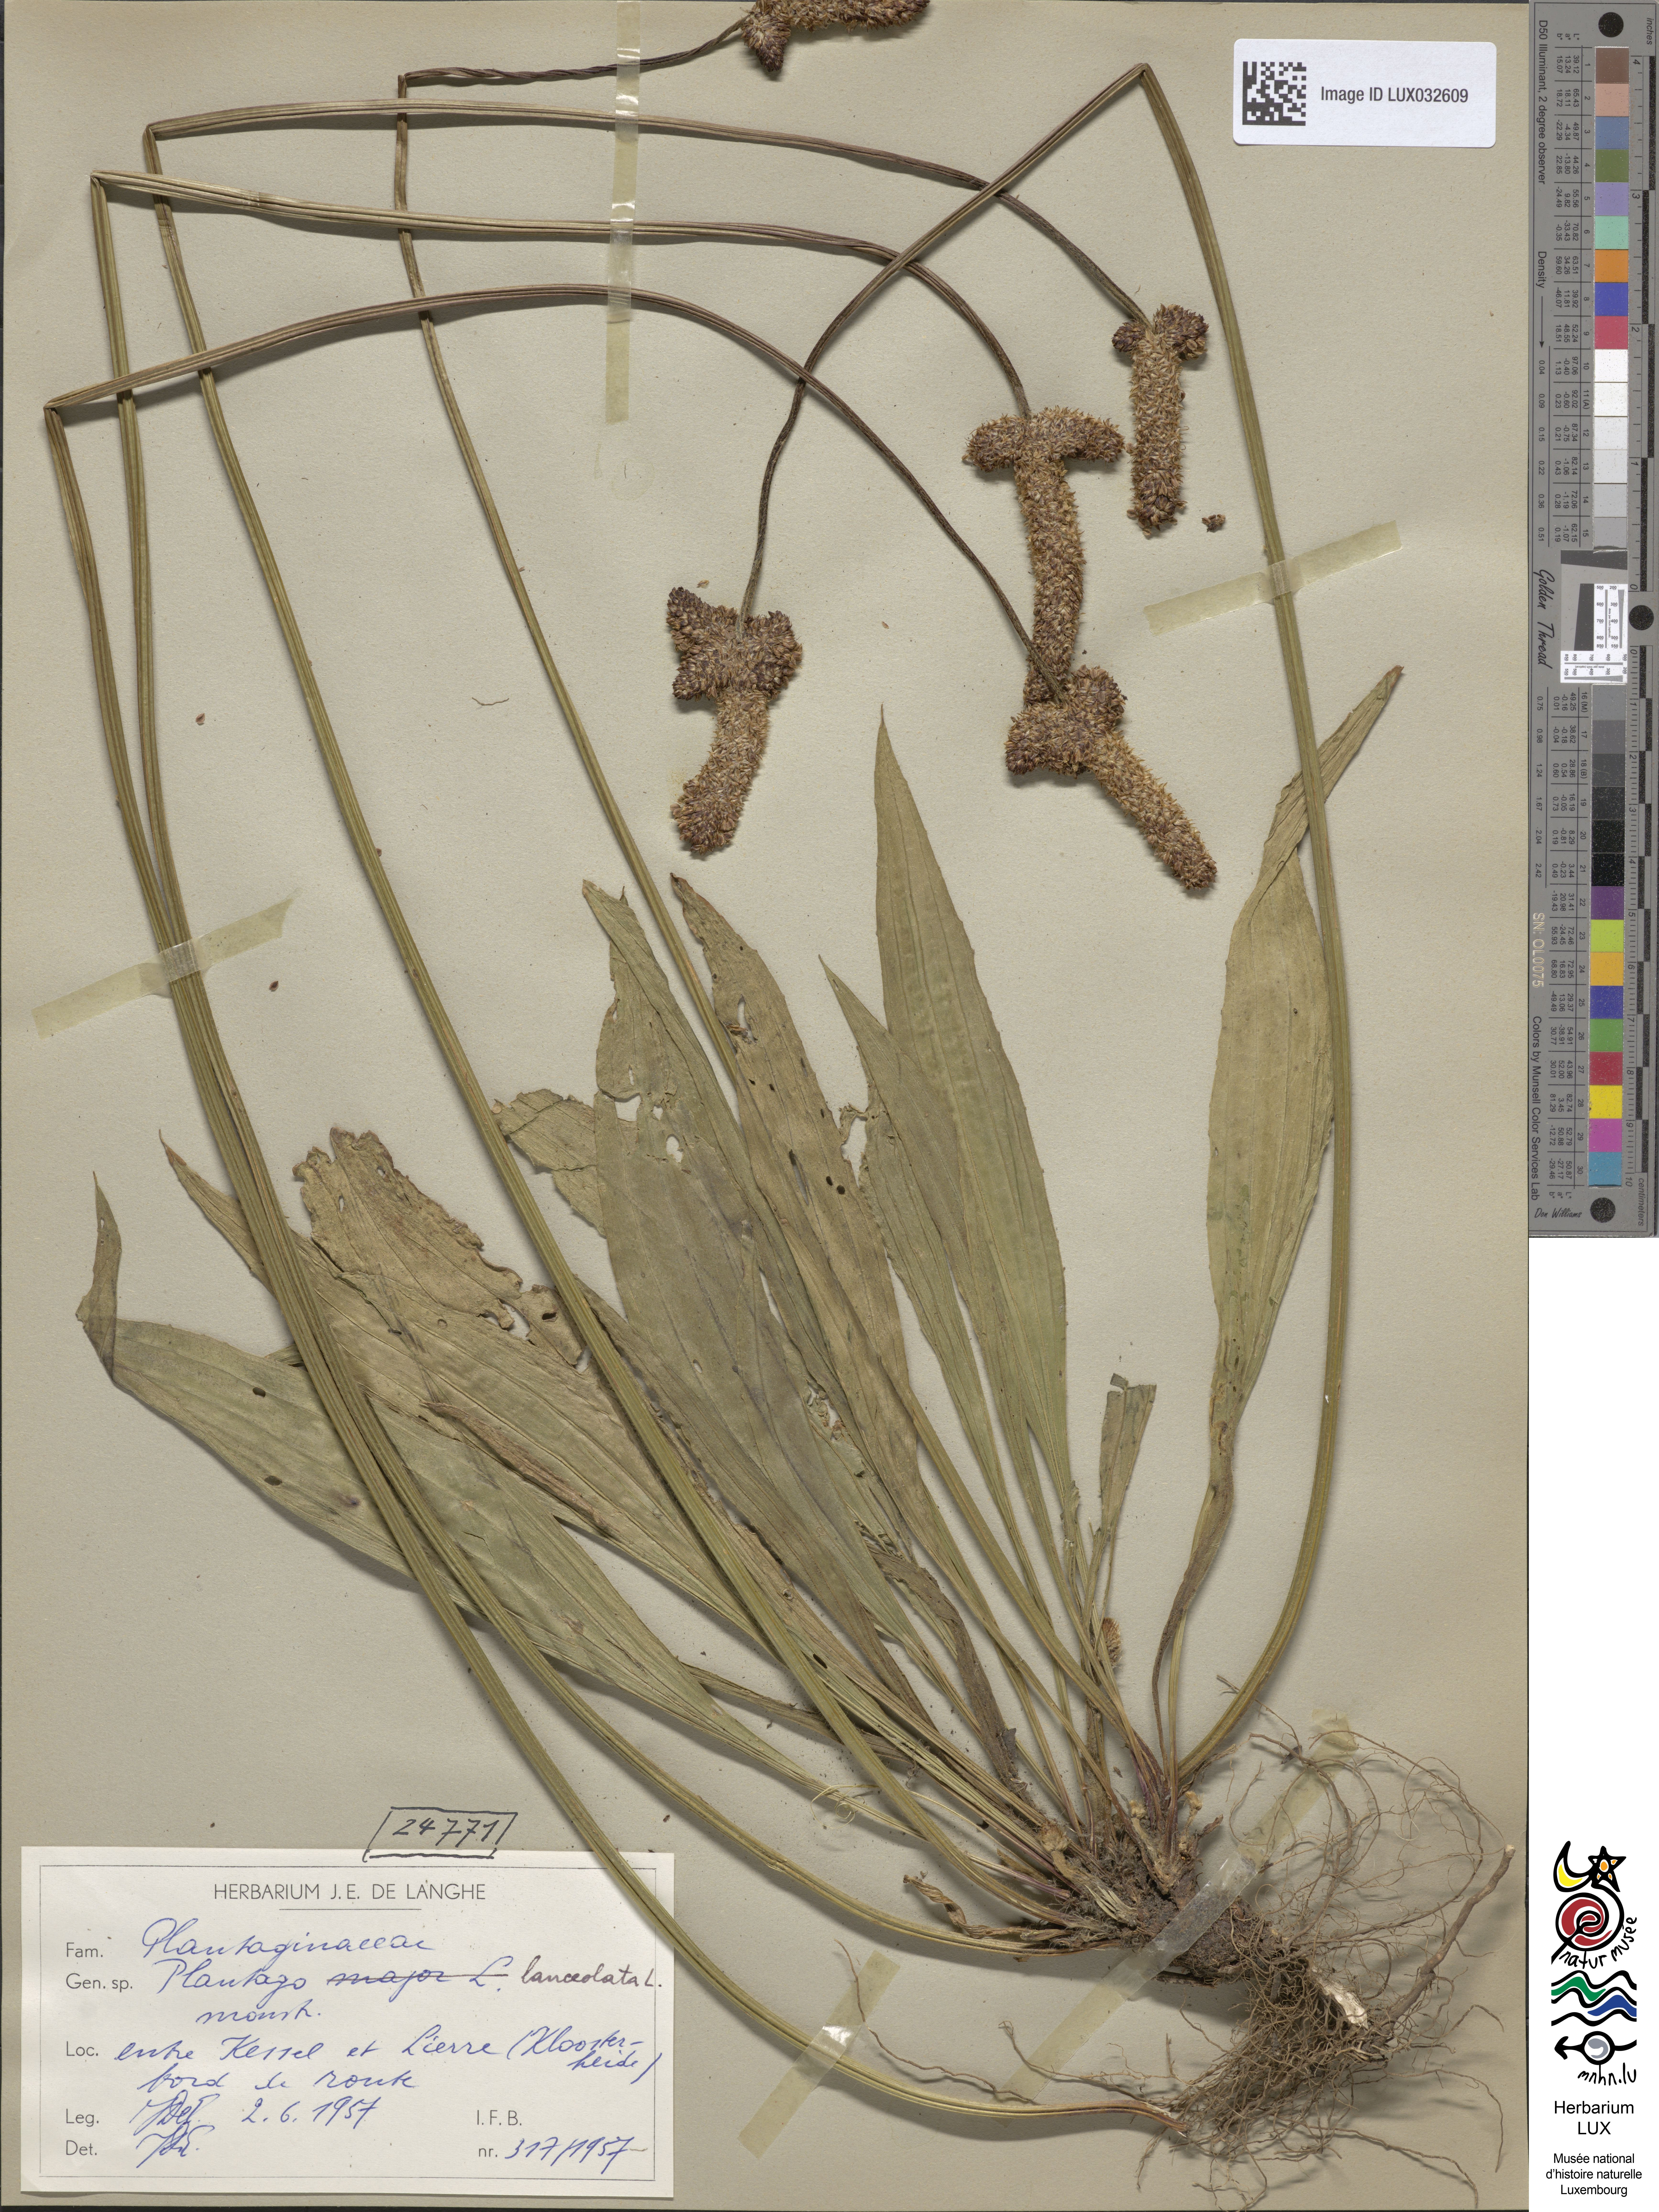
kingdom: Plantae
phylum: Tracheophyta
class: Magnoliopsida
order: Lamiales
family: Plantaginaceae
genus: Plantago
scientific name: Plantago lanceolata
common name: Ribwort plantain
